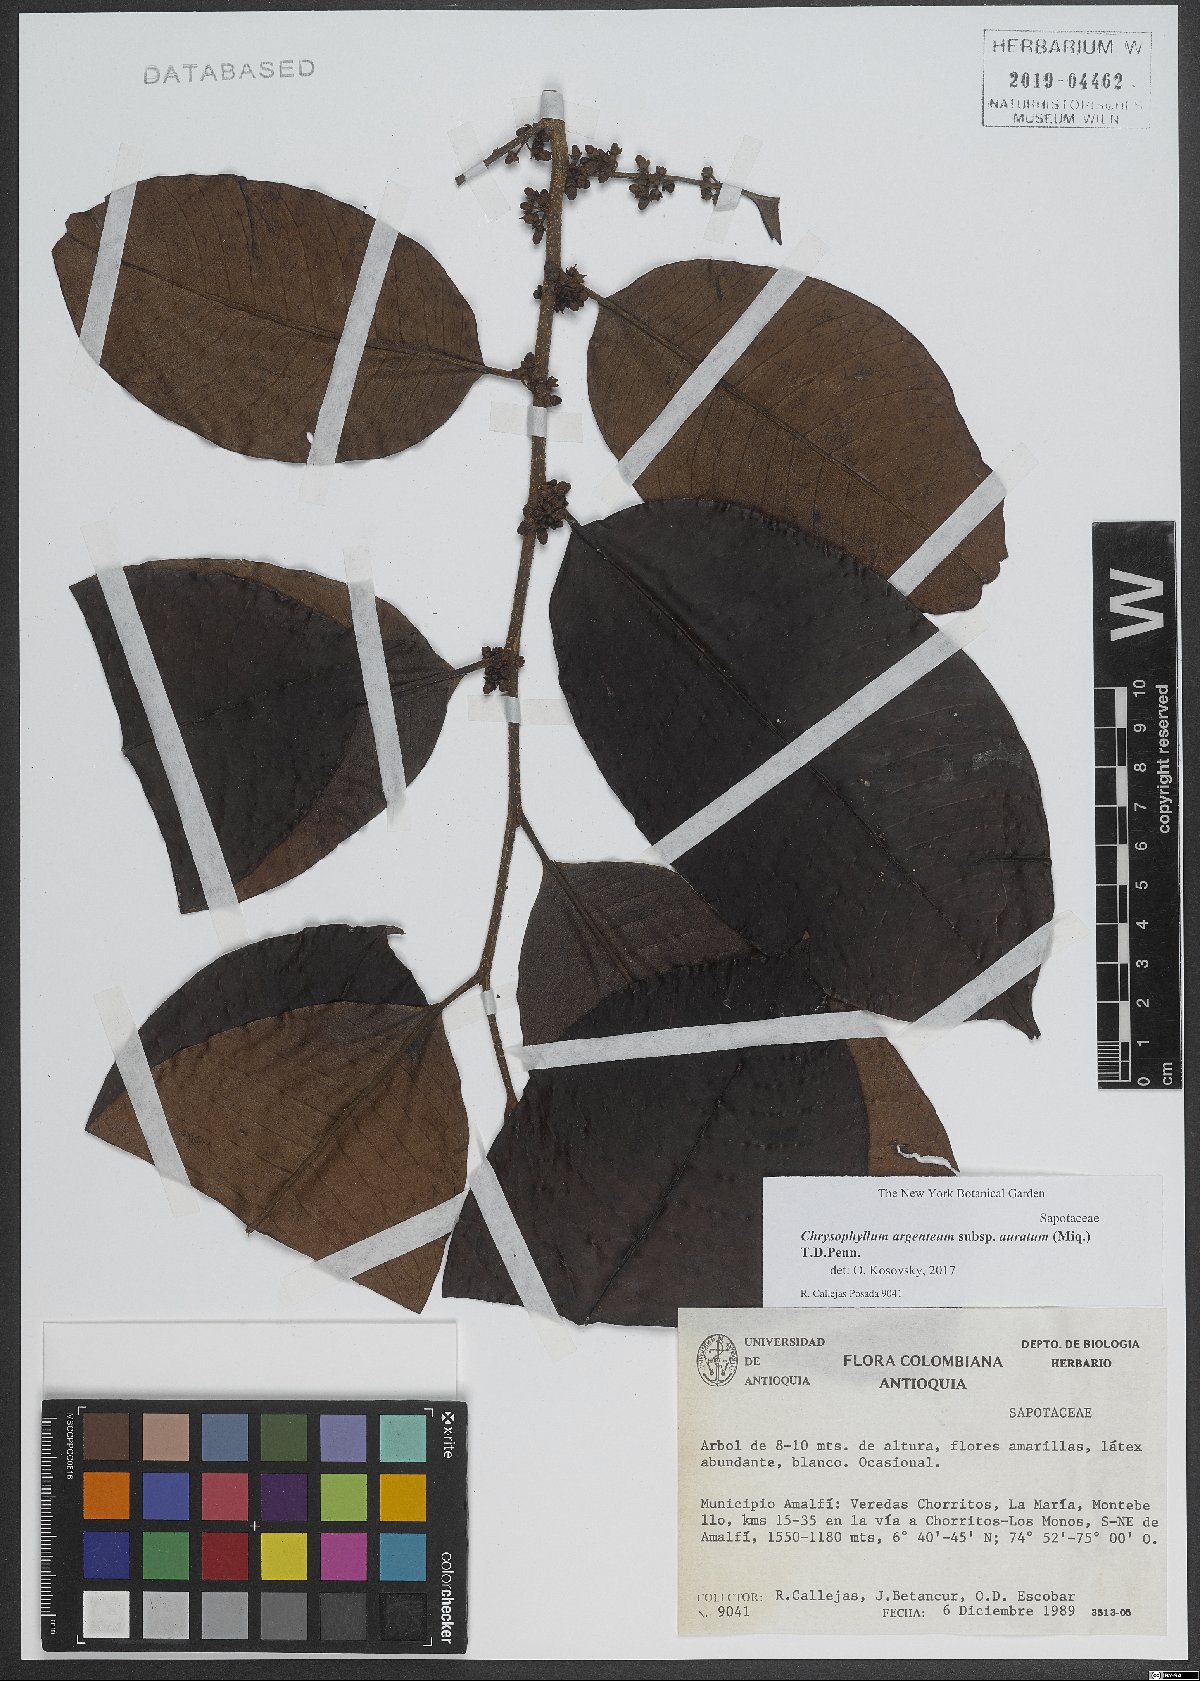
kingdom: Plantae
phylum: Tracheophyta
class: Magnoliopsida
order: Ericales
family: Sapotaceae
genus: Chrysophyllum
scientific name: Chrysophyllum argenteum
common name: Smooth star apple
